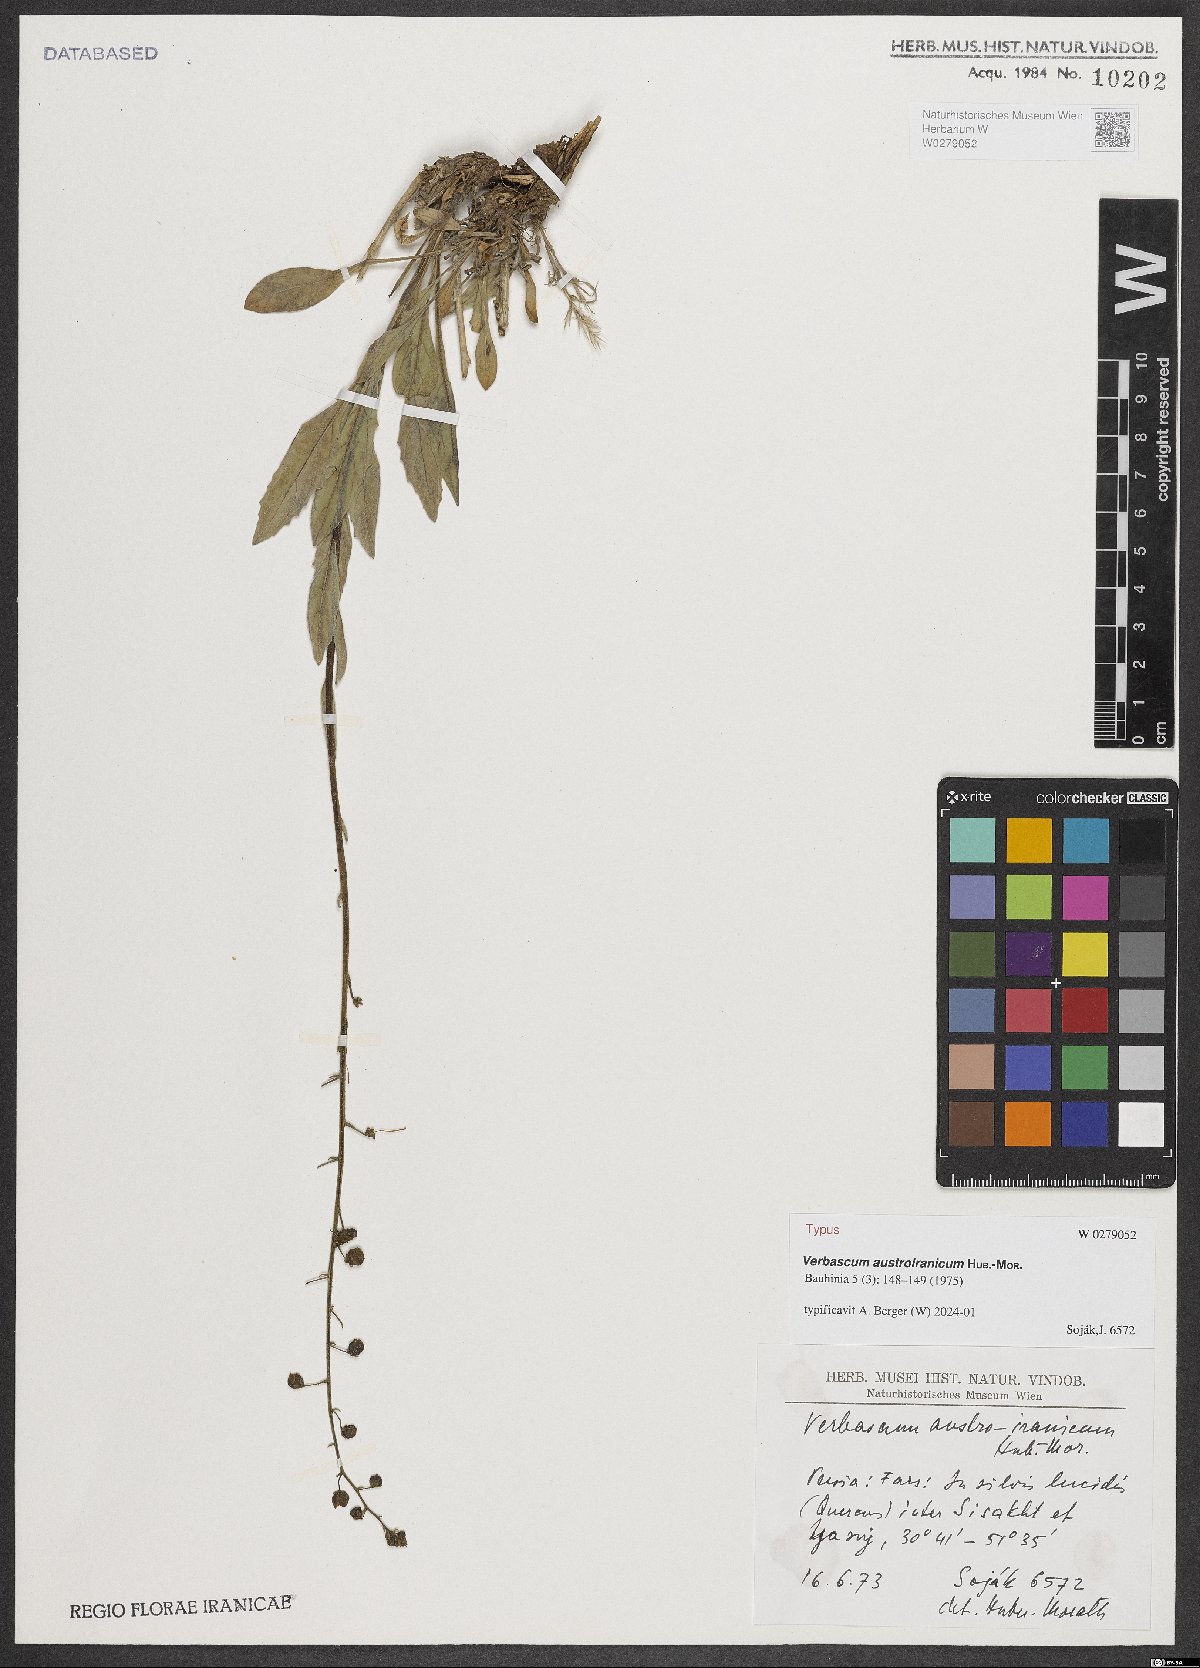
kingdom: Plantae
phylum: Tracheophyta
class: Magnoliopsida
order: Lamiales
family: Scrophulariaceae
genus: Verbascum
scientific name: Verbascum austroiranicum
